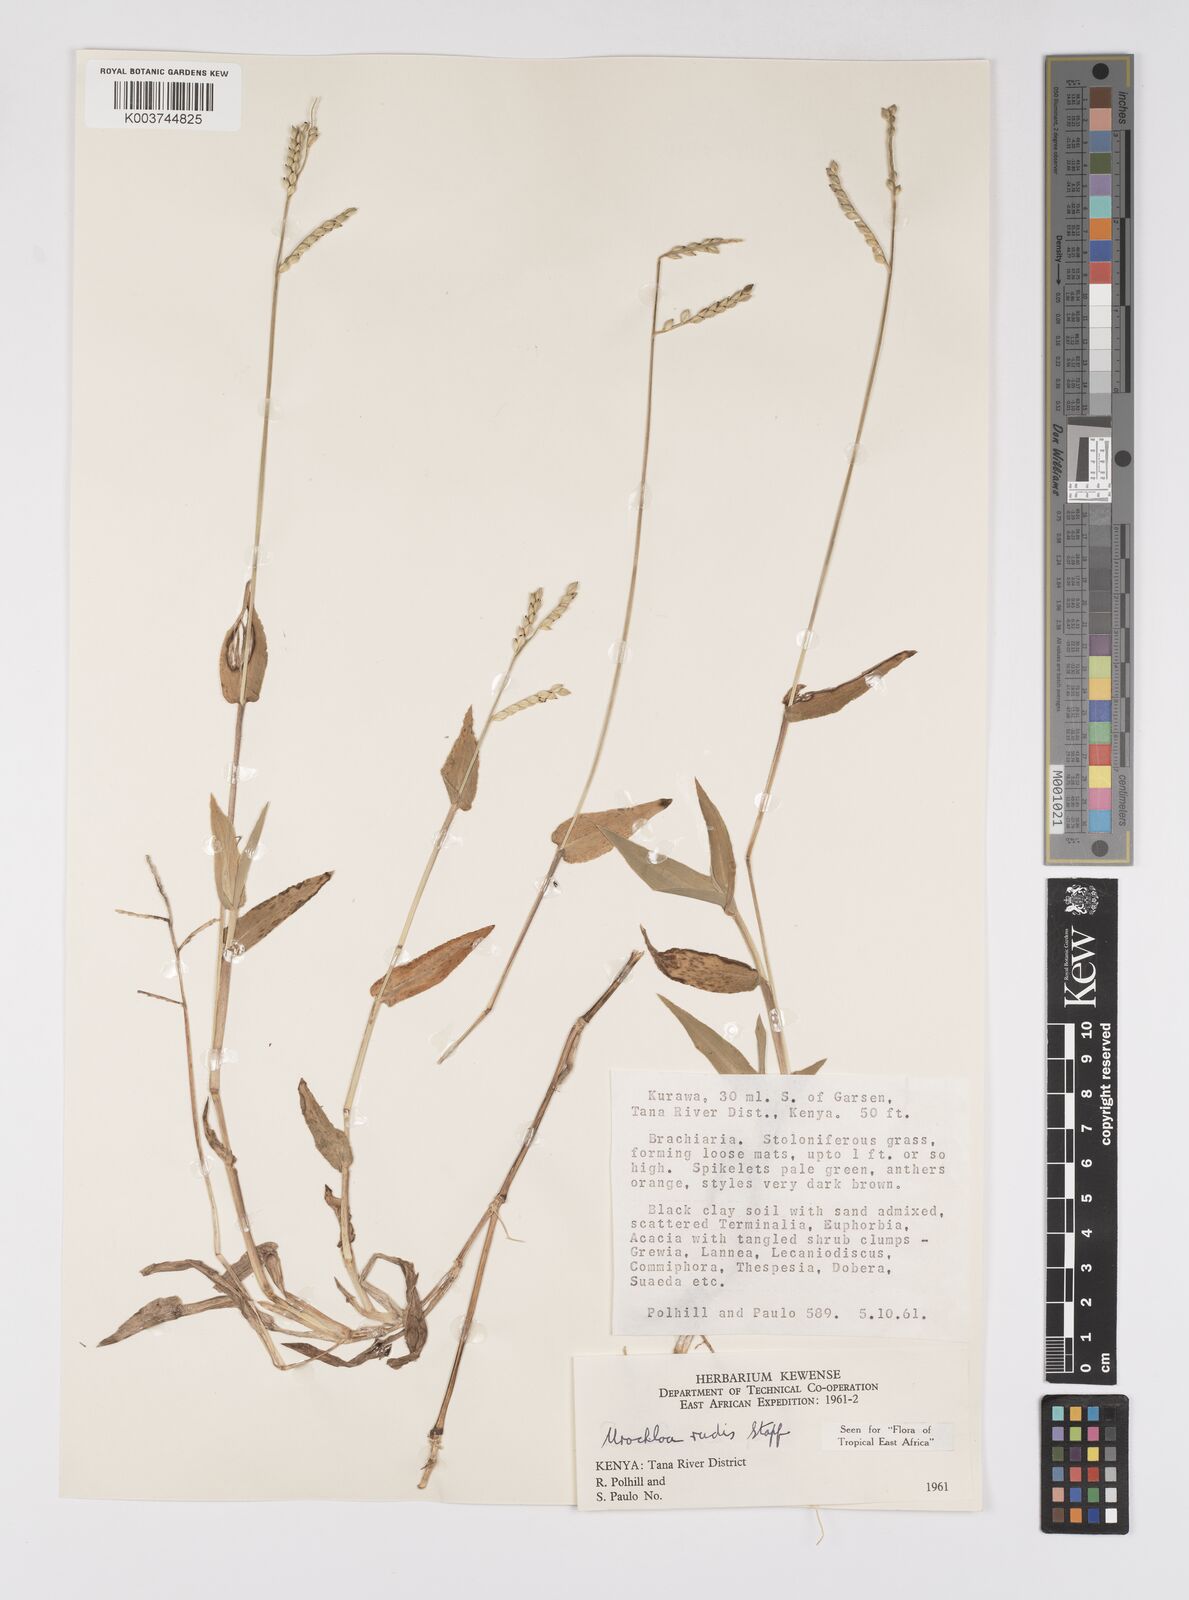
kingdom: Plantae
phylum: Tracheophyta
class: Liliopsida
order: Poales
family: Poaceae
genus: Urochloa
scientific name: Urochloa rudis
